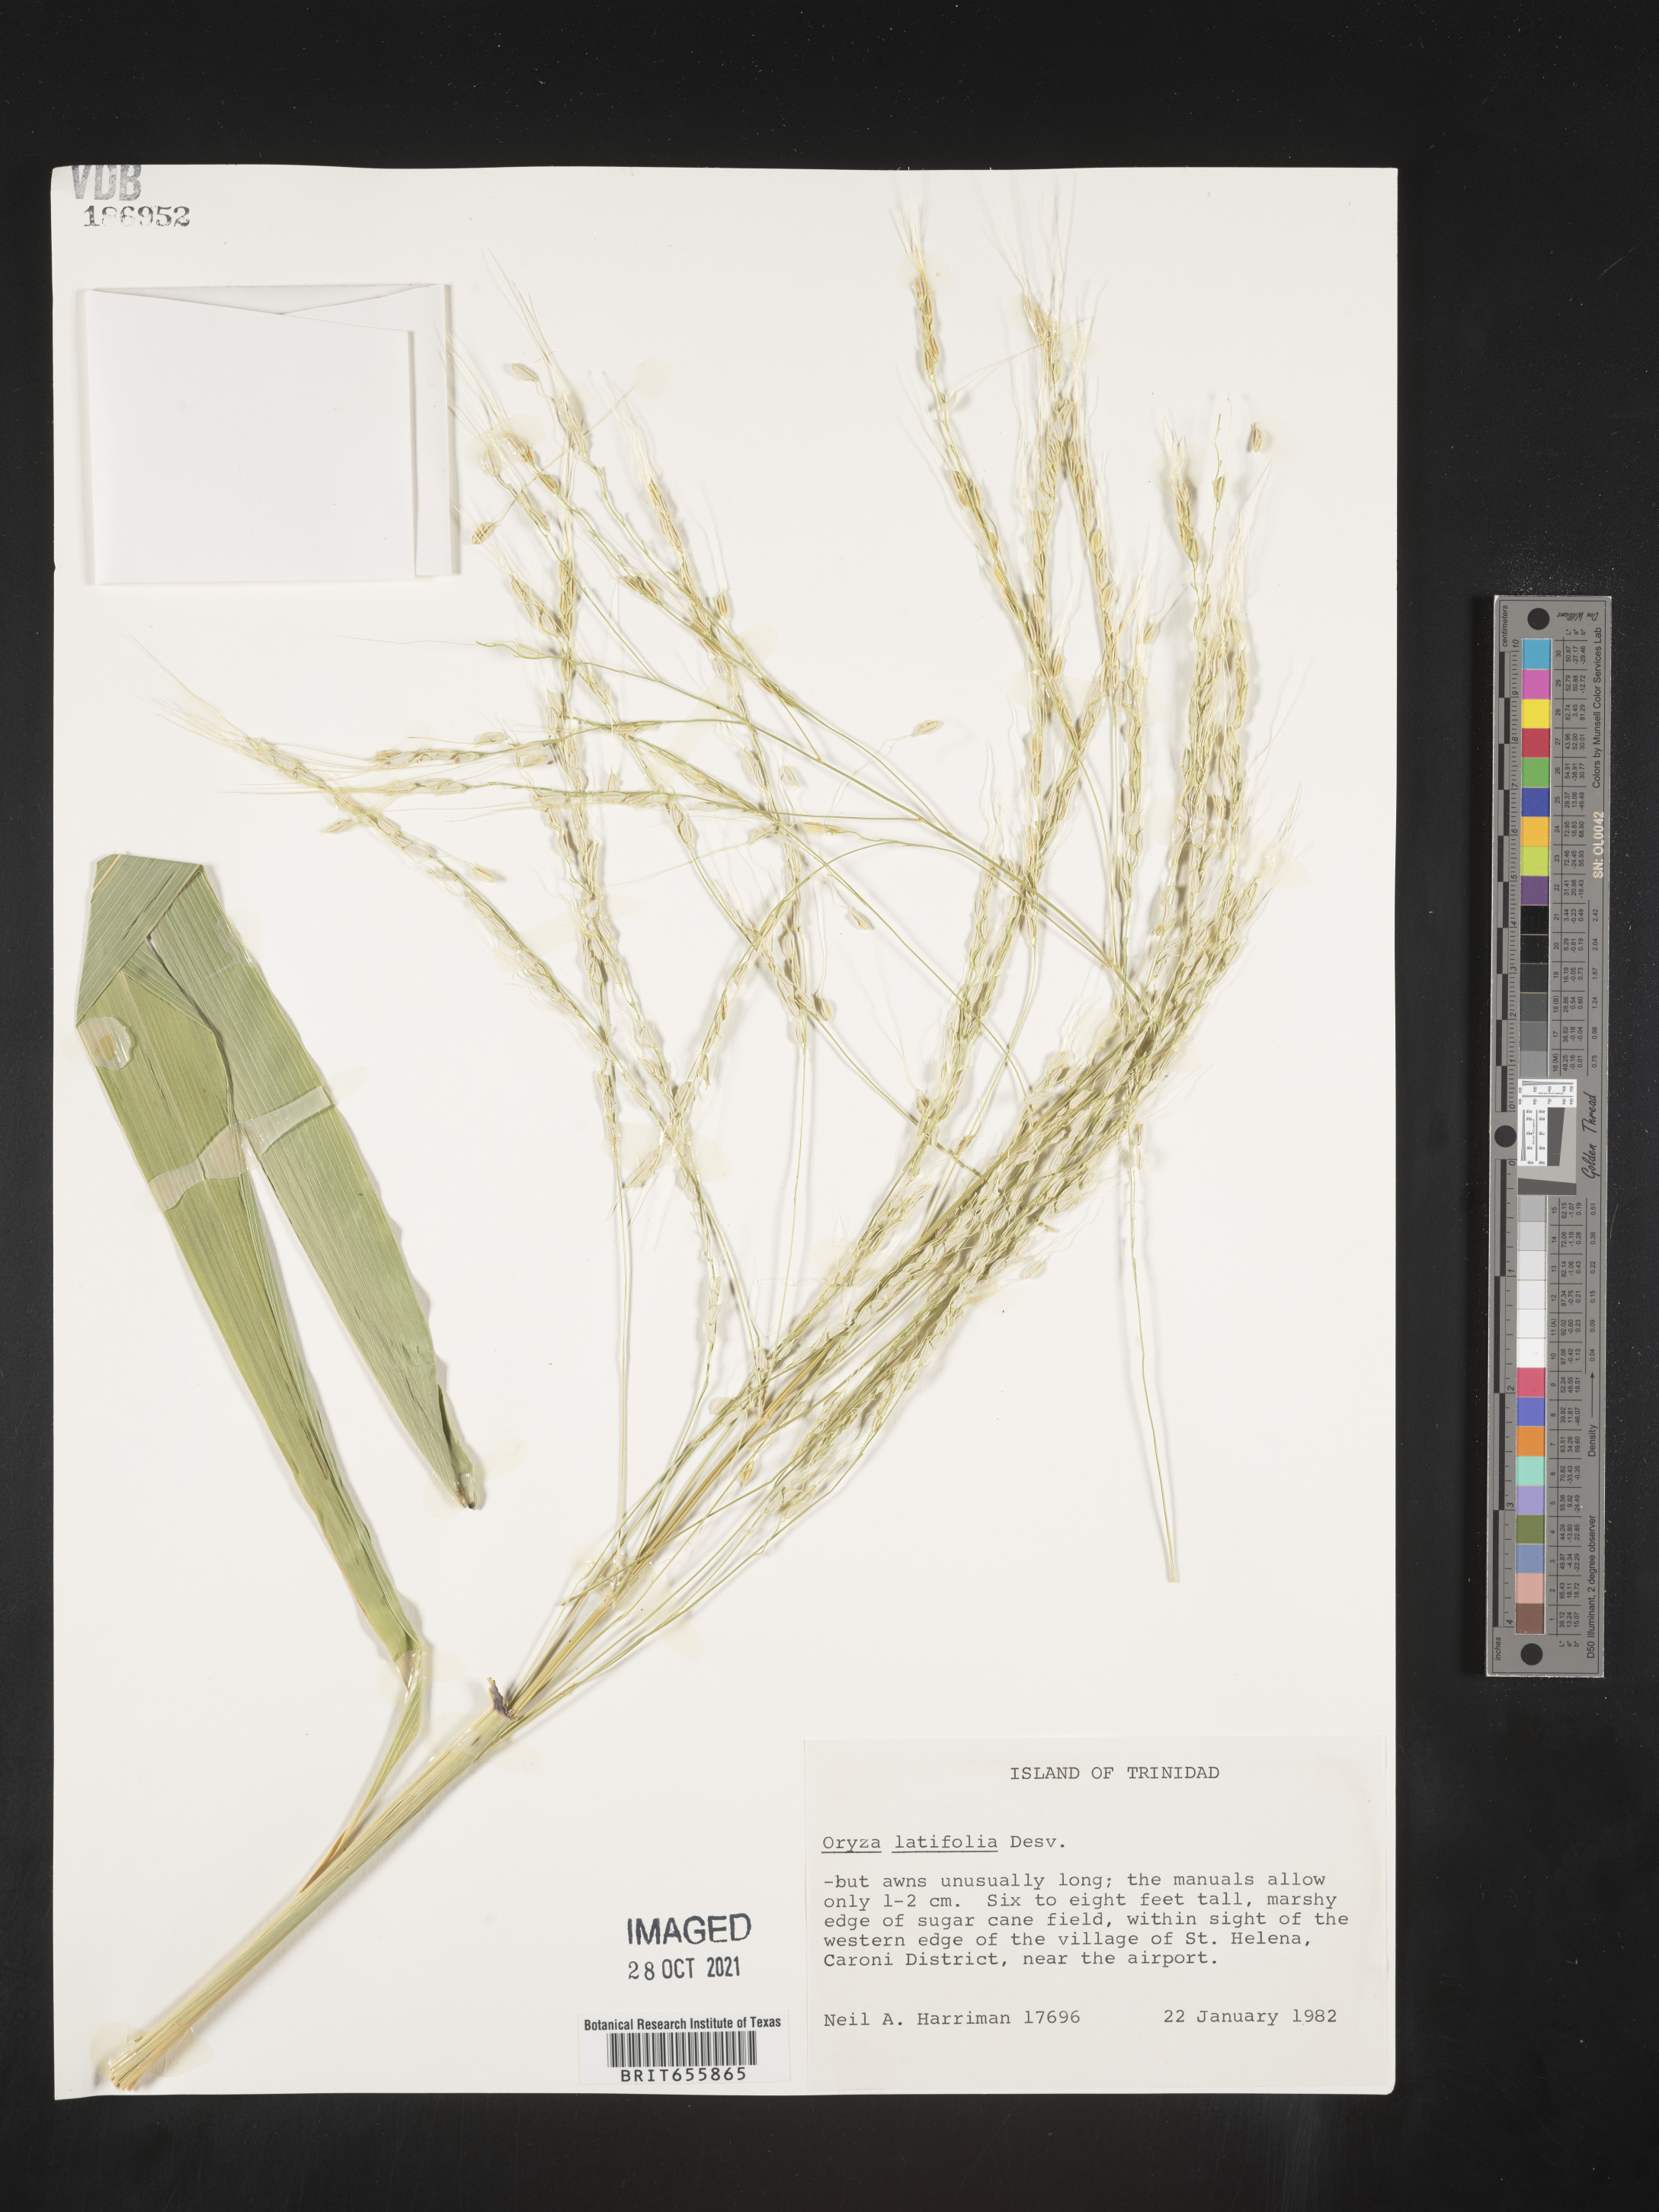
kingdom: Plantae
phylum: Tracheophyta
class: Liliopsida
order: Poales
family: Poaceae
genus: Oryza
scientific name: Oryza
